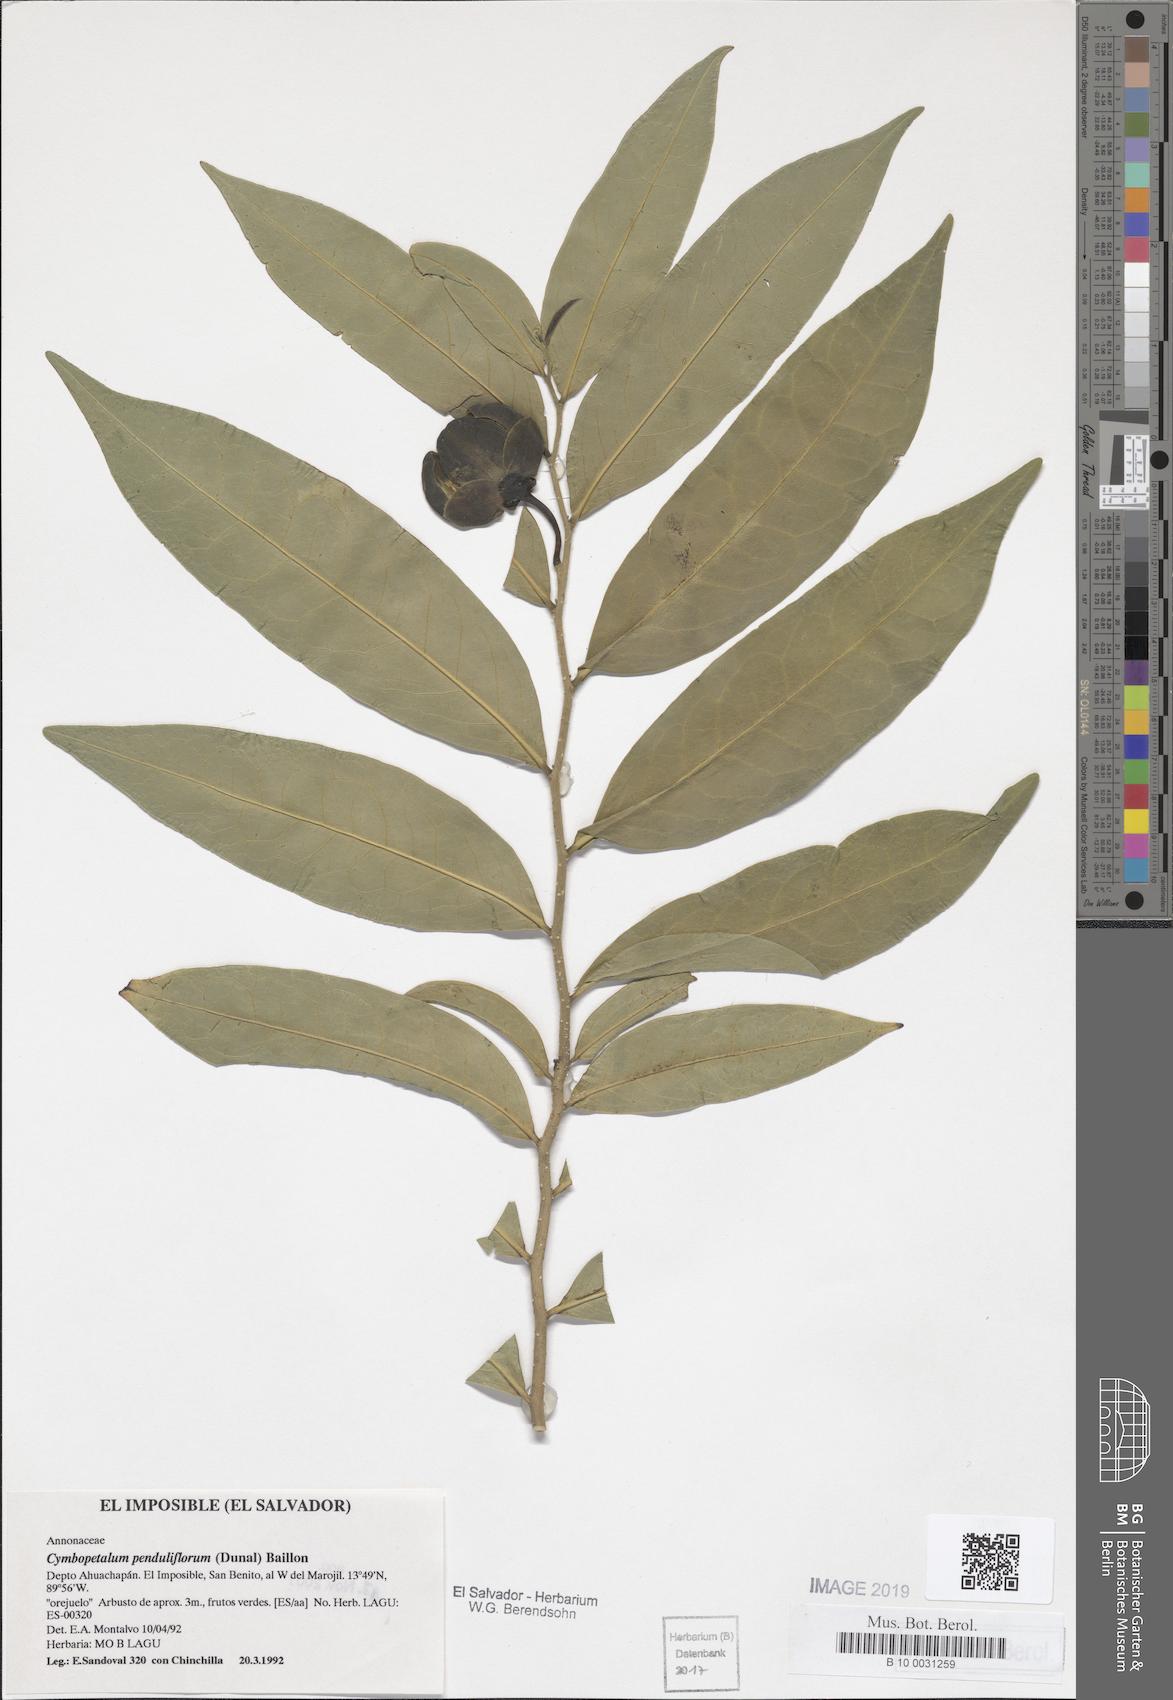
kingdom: Plantae
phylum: Tracheophyta
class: Magnoliopsida
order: Magnoliales
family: Annonaceae
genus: Cymbopetalum
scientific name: Cymbopetalum penduliflorum
